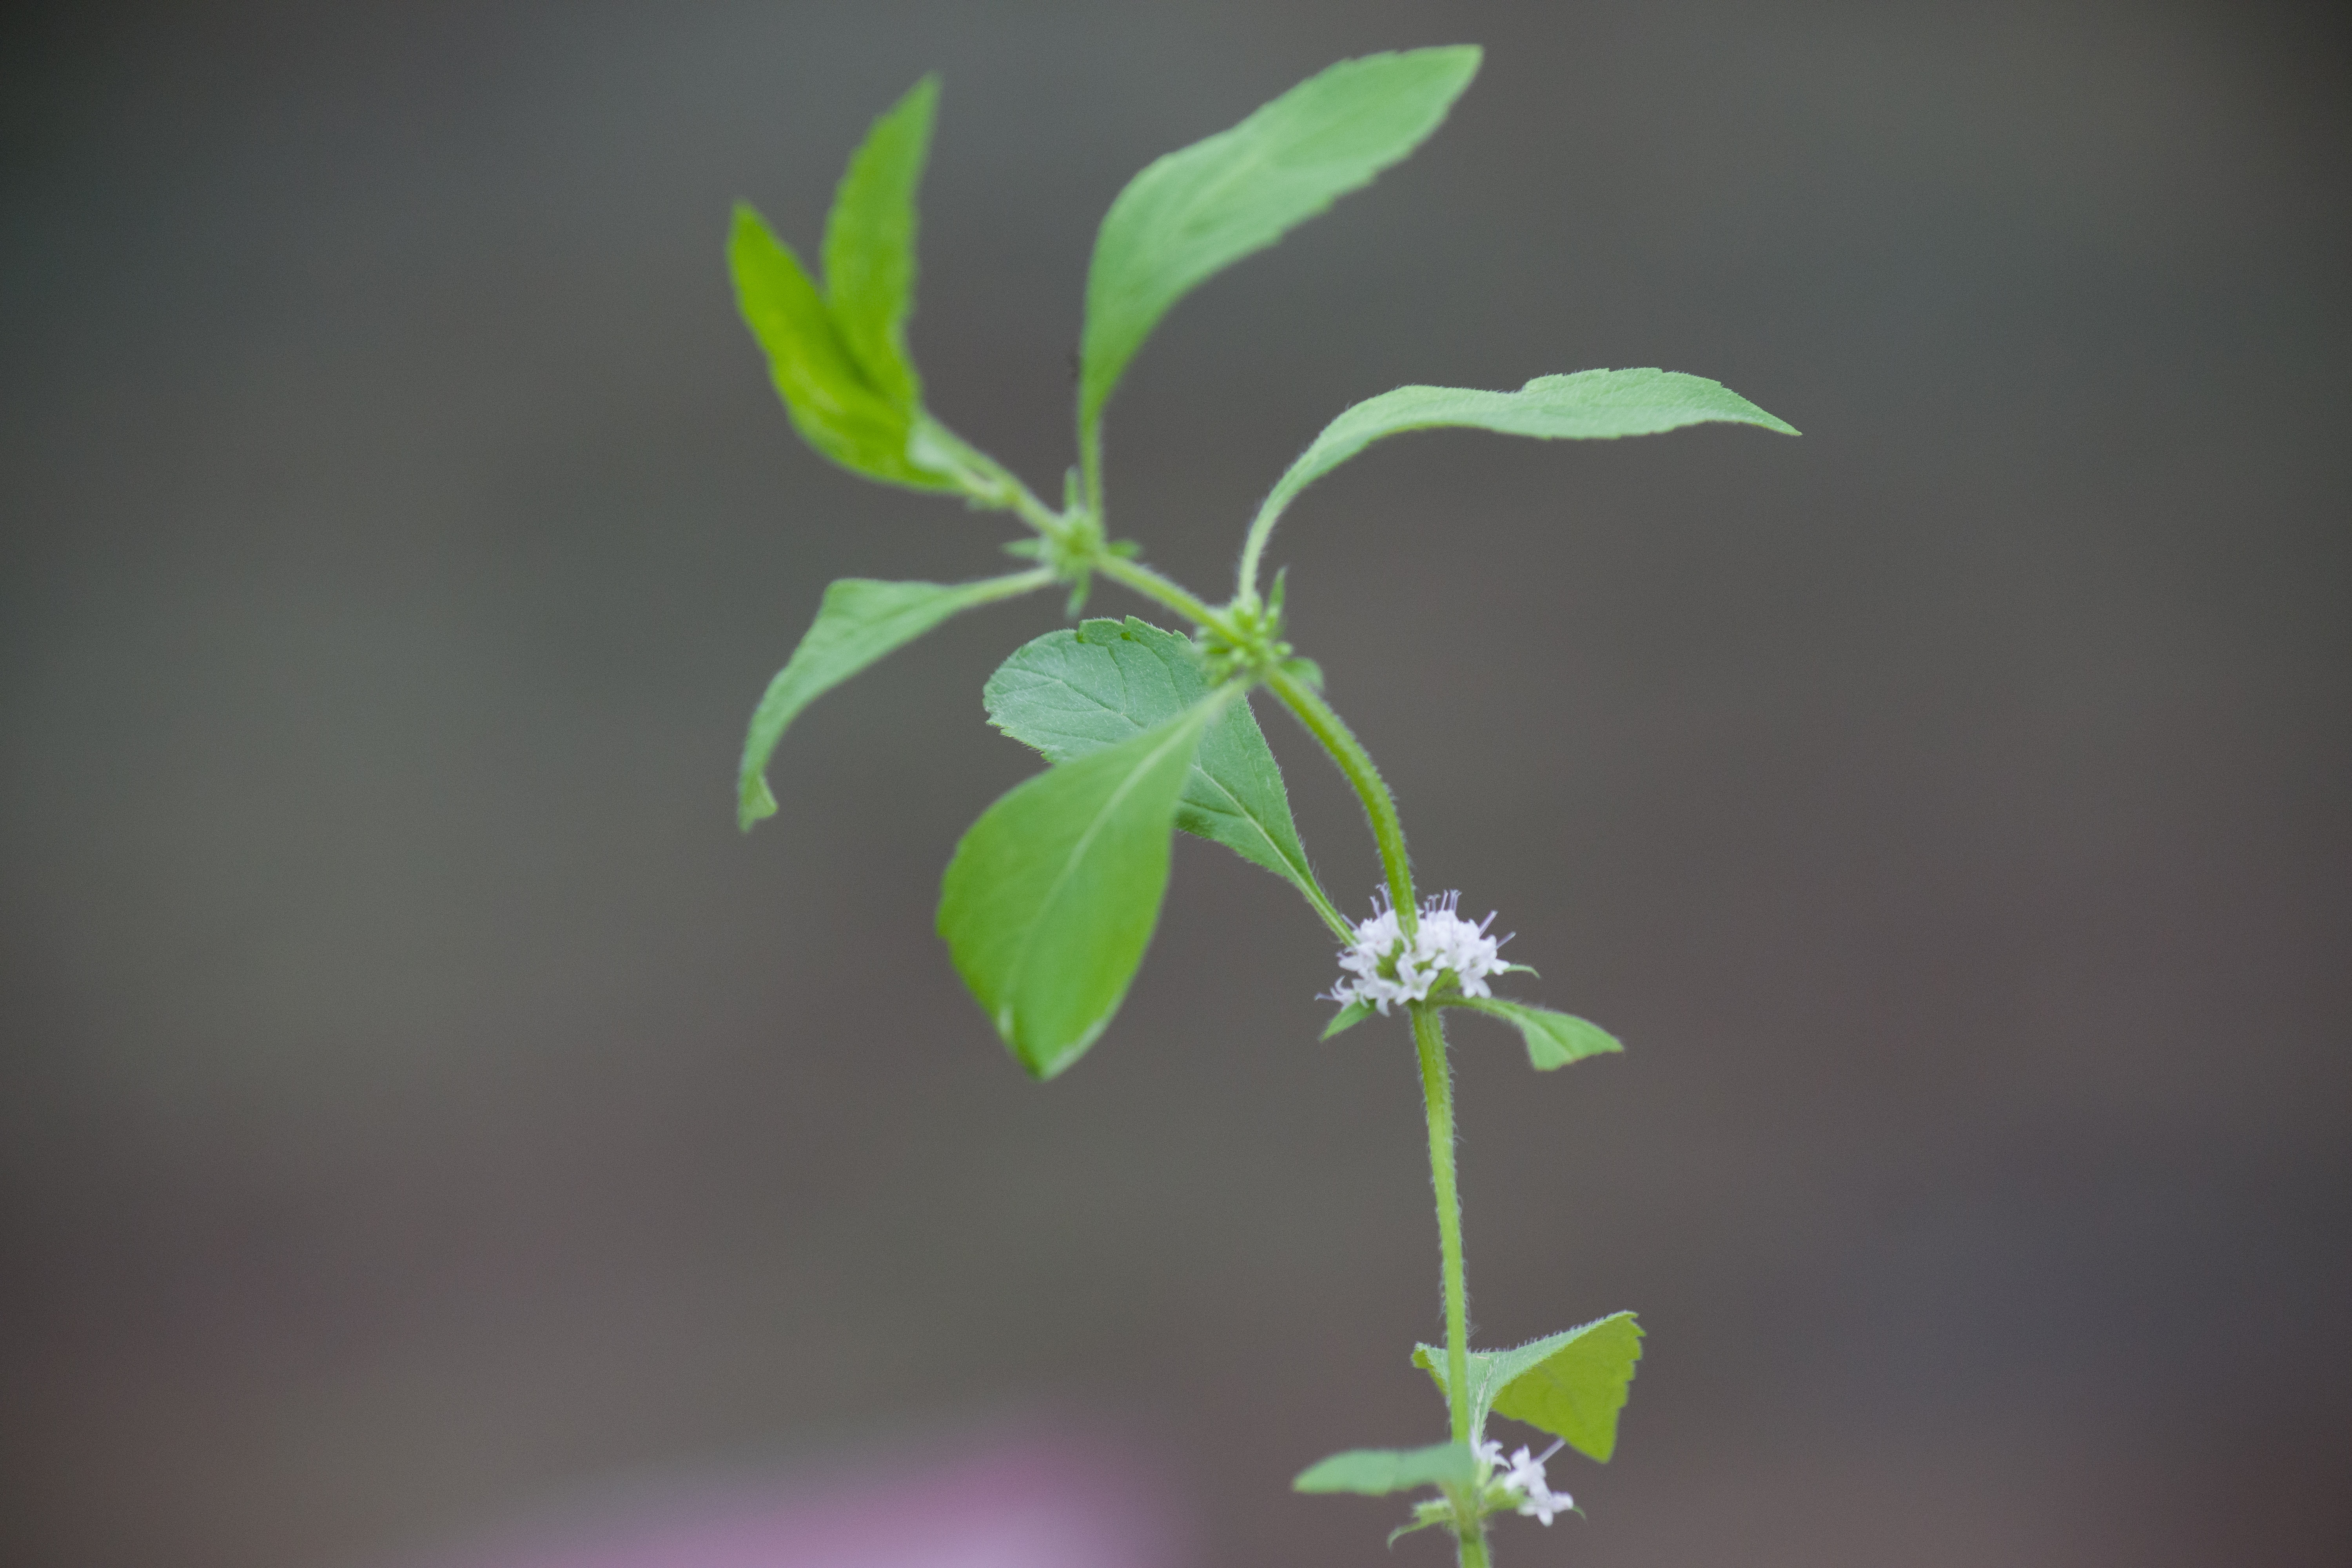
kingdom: Plantae
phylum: Tracheophyta
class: Magnoliopsida
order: Lamiales
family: Lamiaceae
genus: Mentha
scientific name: Mentha arvensis
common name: Mint
